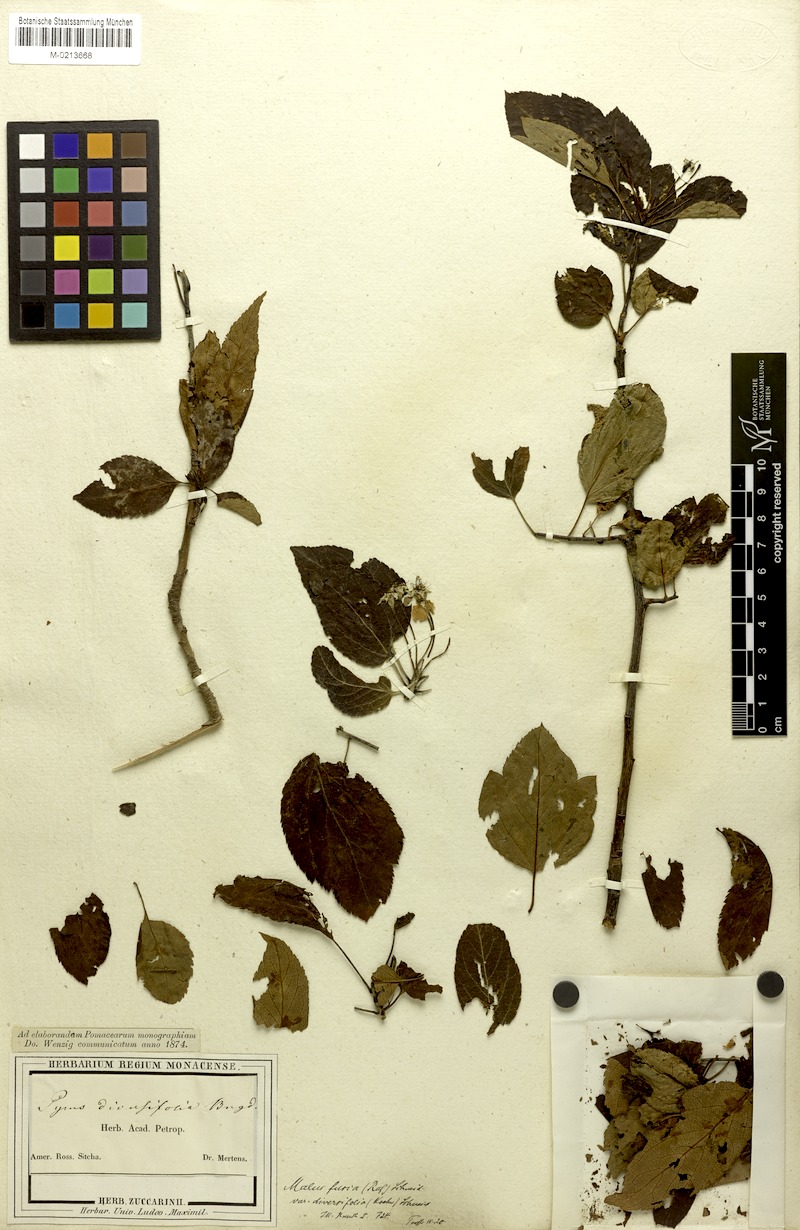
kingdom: Plantae
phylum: Tracheophyta
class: Magnoliopsida
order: Rosales
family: Rosaceae
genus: Malus
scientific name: Malus fusca
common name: Oregon crab apple
